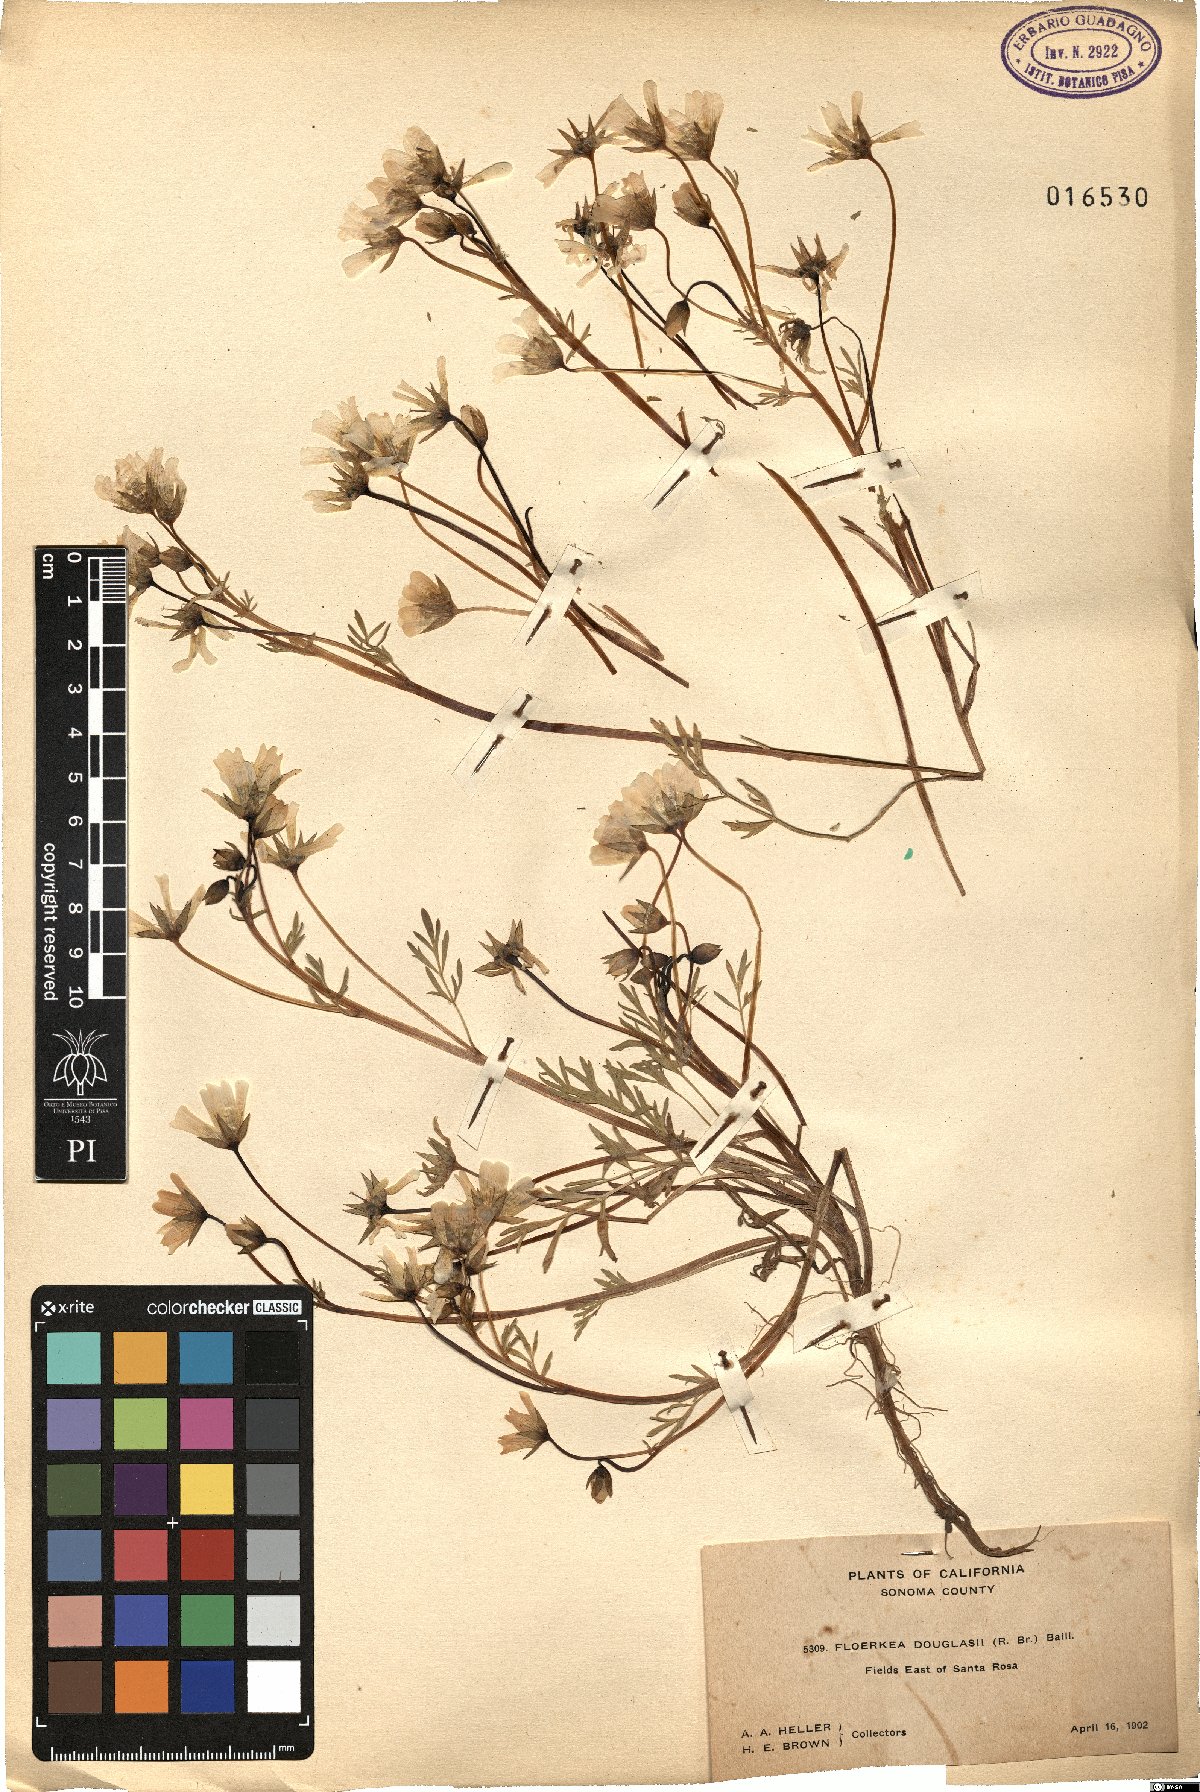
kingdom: Plantae
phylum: Tracheophyta
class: Magnoliopsida
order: Brassicales
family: Limnanthaceae
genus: Limnanthes
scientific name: Limnanthes douglasii
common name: Meadow-foam
